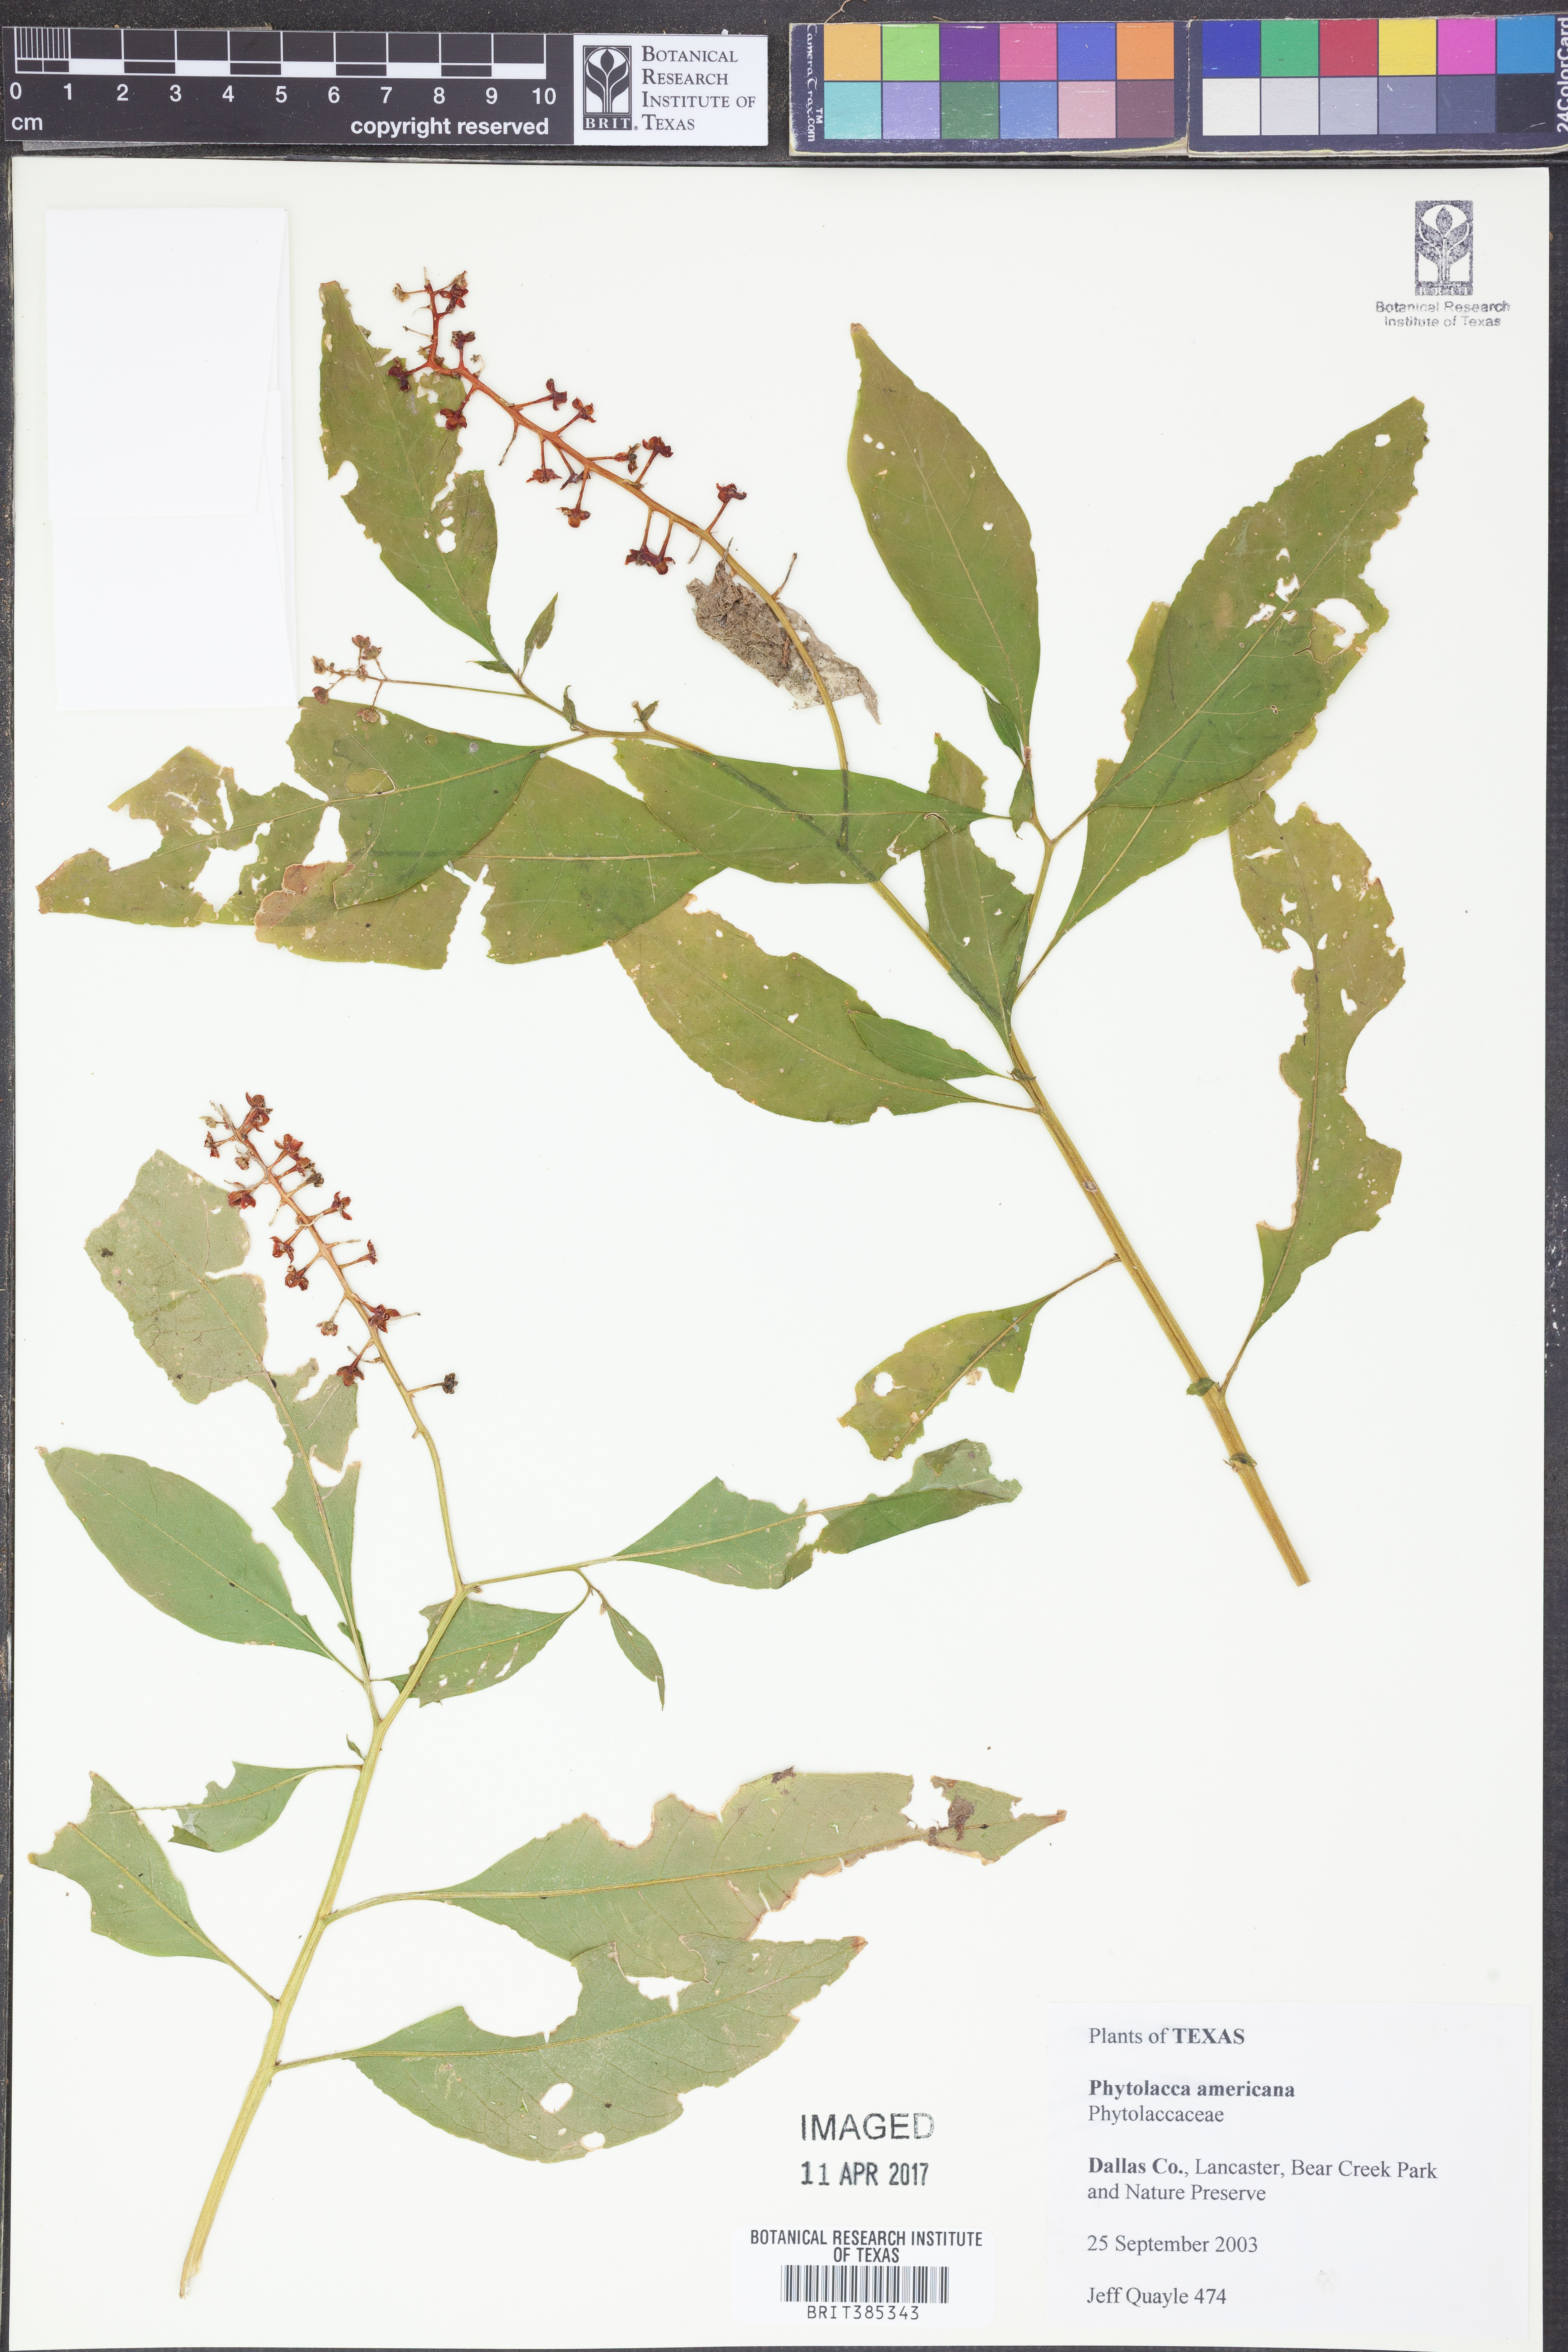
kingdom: Plantae
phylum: Tracheophyta
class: Magnoliopsida
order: Caryophyllales
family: Phytolaccaceae
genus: Phytolacca
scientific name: Phytolacca americana
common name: American pokeweed
